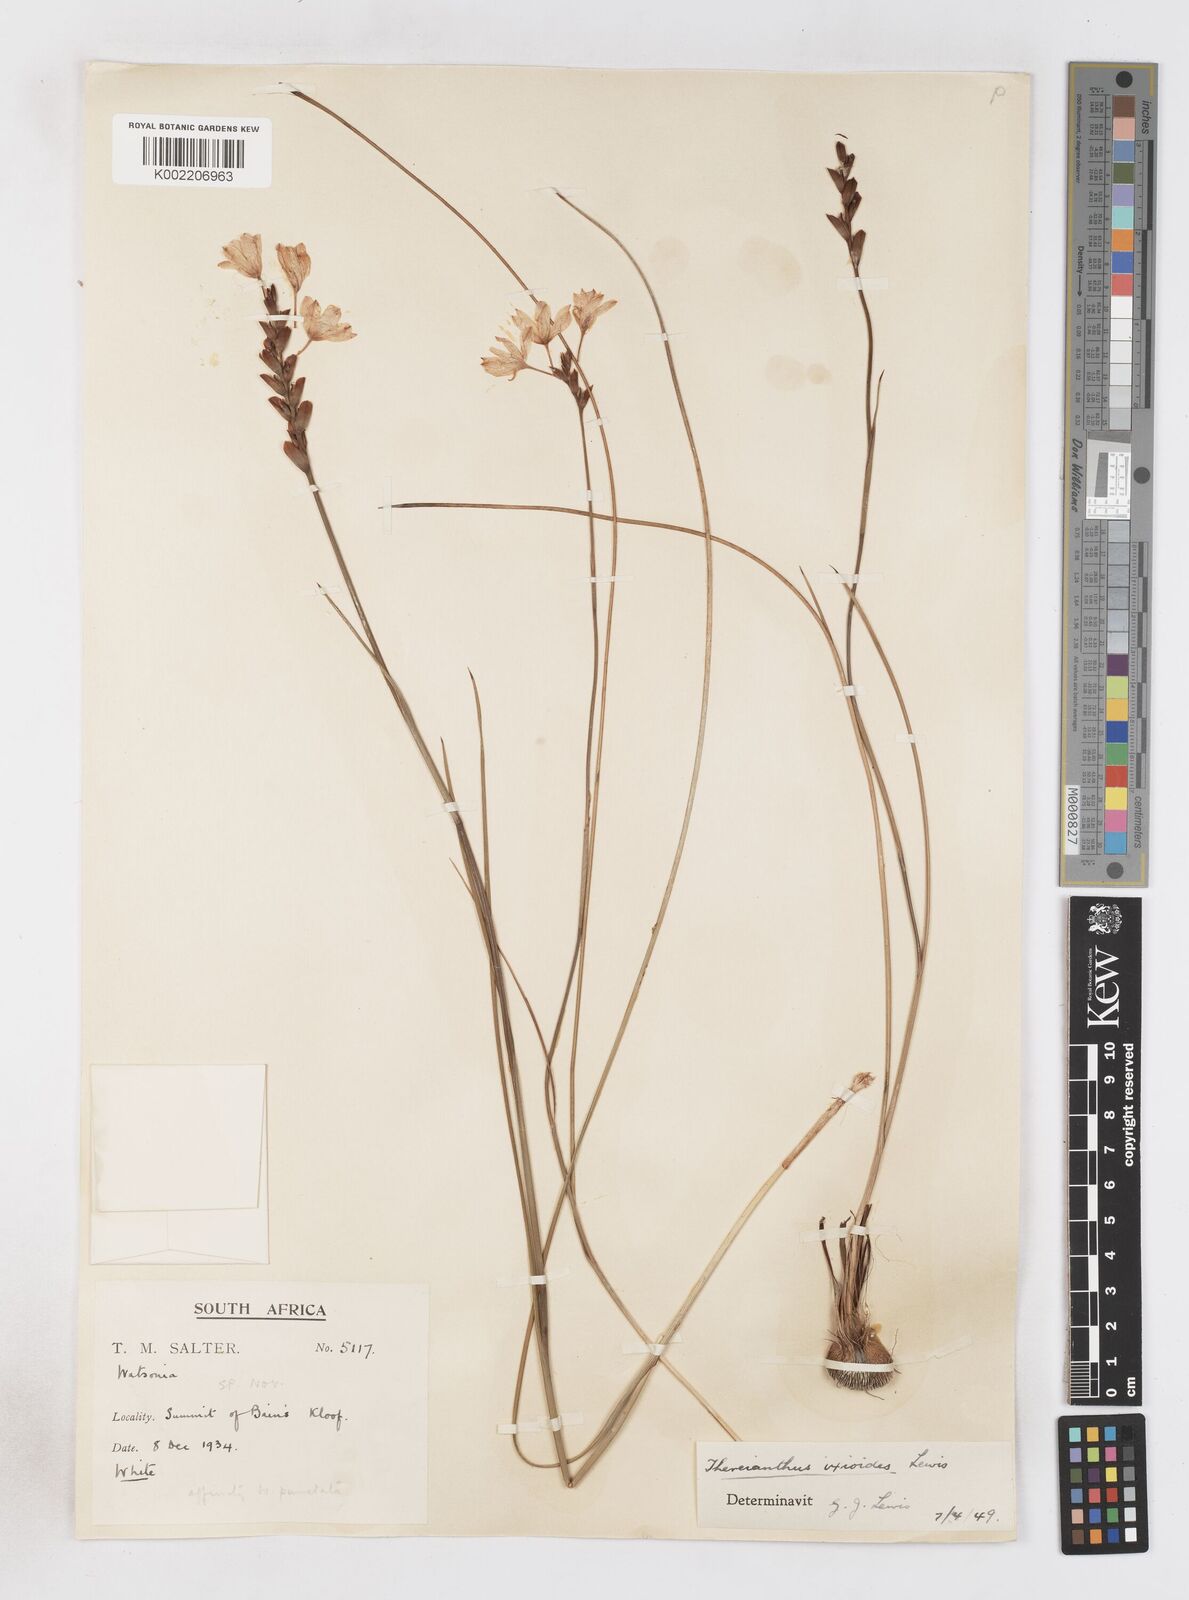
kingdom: Plantae
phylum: Tracheophyta
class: Liliopsida
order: Asparagales
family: Iridaceae
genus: Thereianthus
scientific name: Thereianthus ixioides
